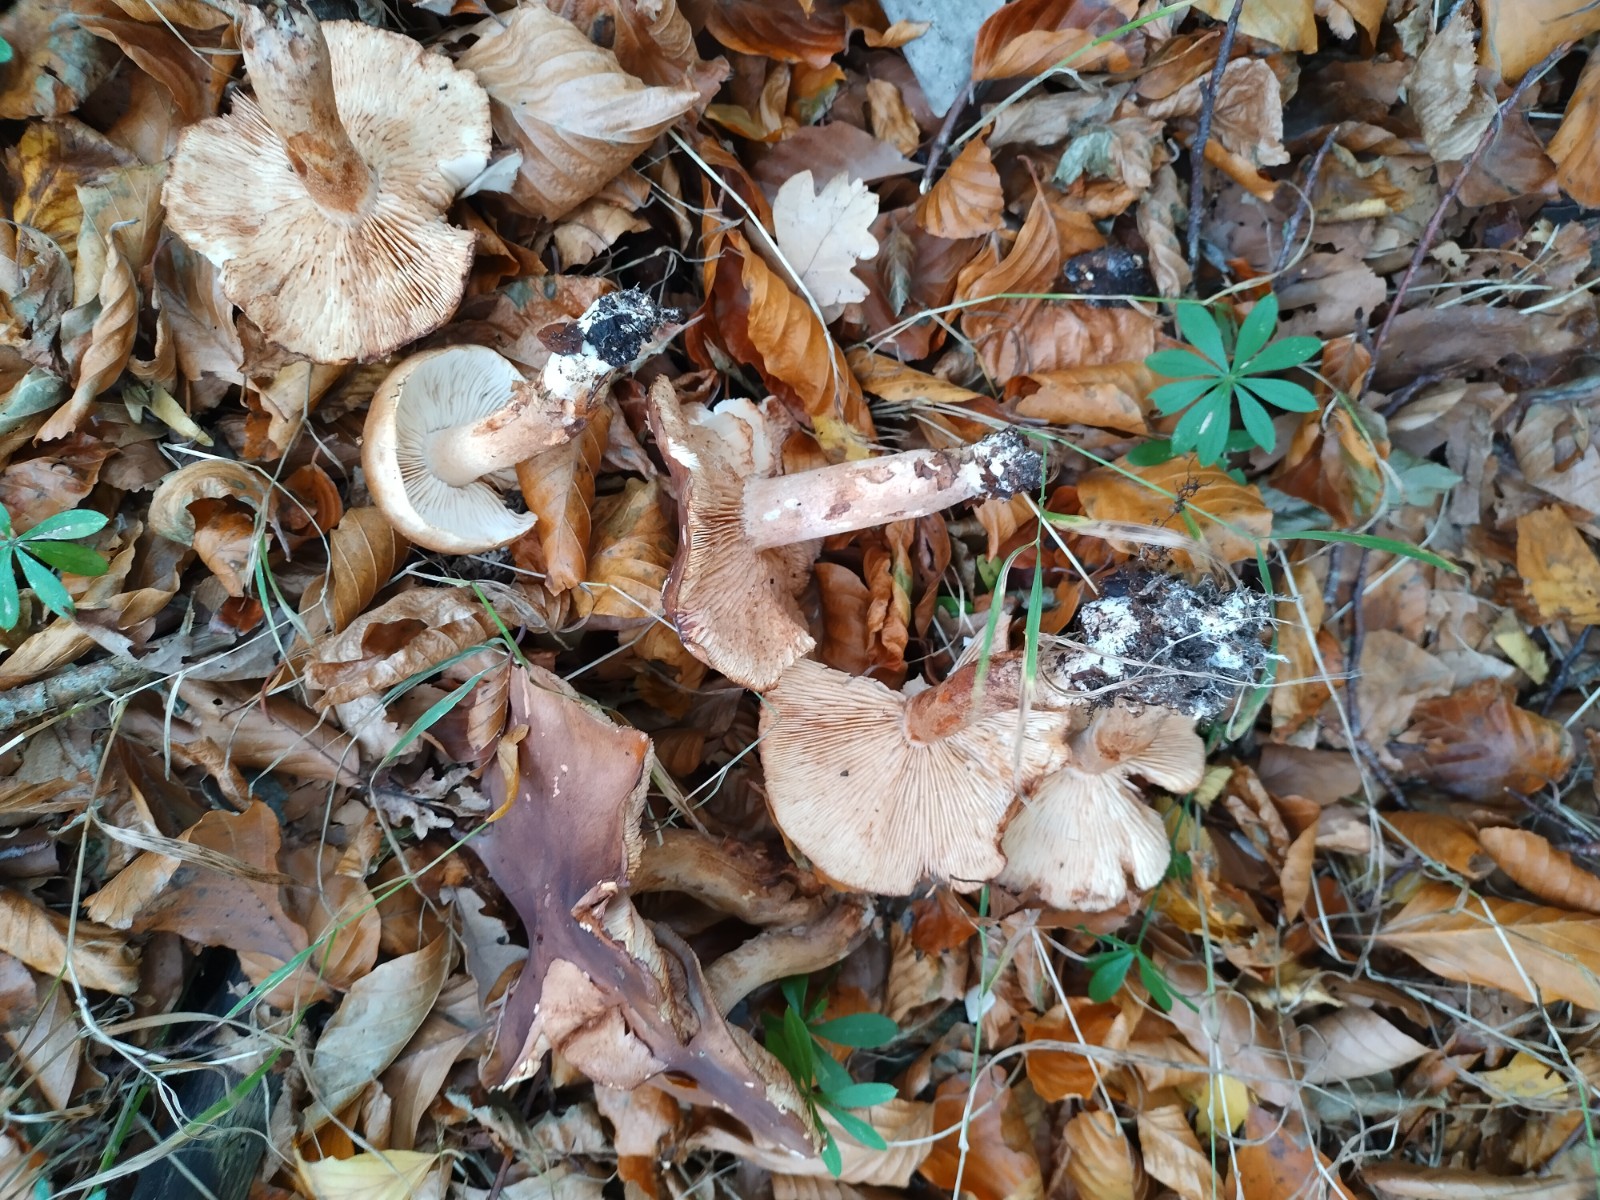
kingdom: Fungi
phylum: Basidiomycota
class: Agaricomycetes
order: Agaricales
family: Tricholomataceae
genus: Tricholoma
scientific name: Tricholoma ustale
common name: sveden ridderhat
